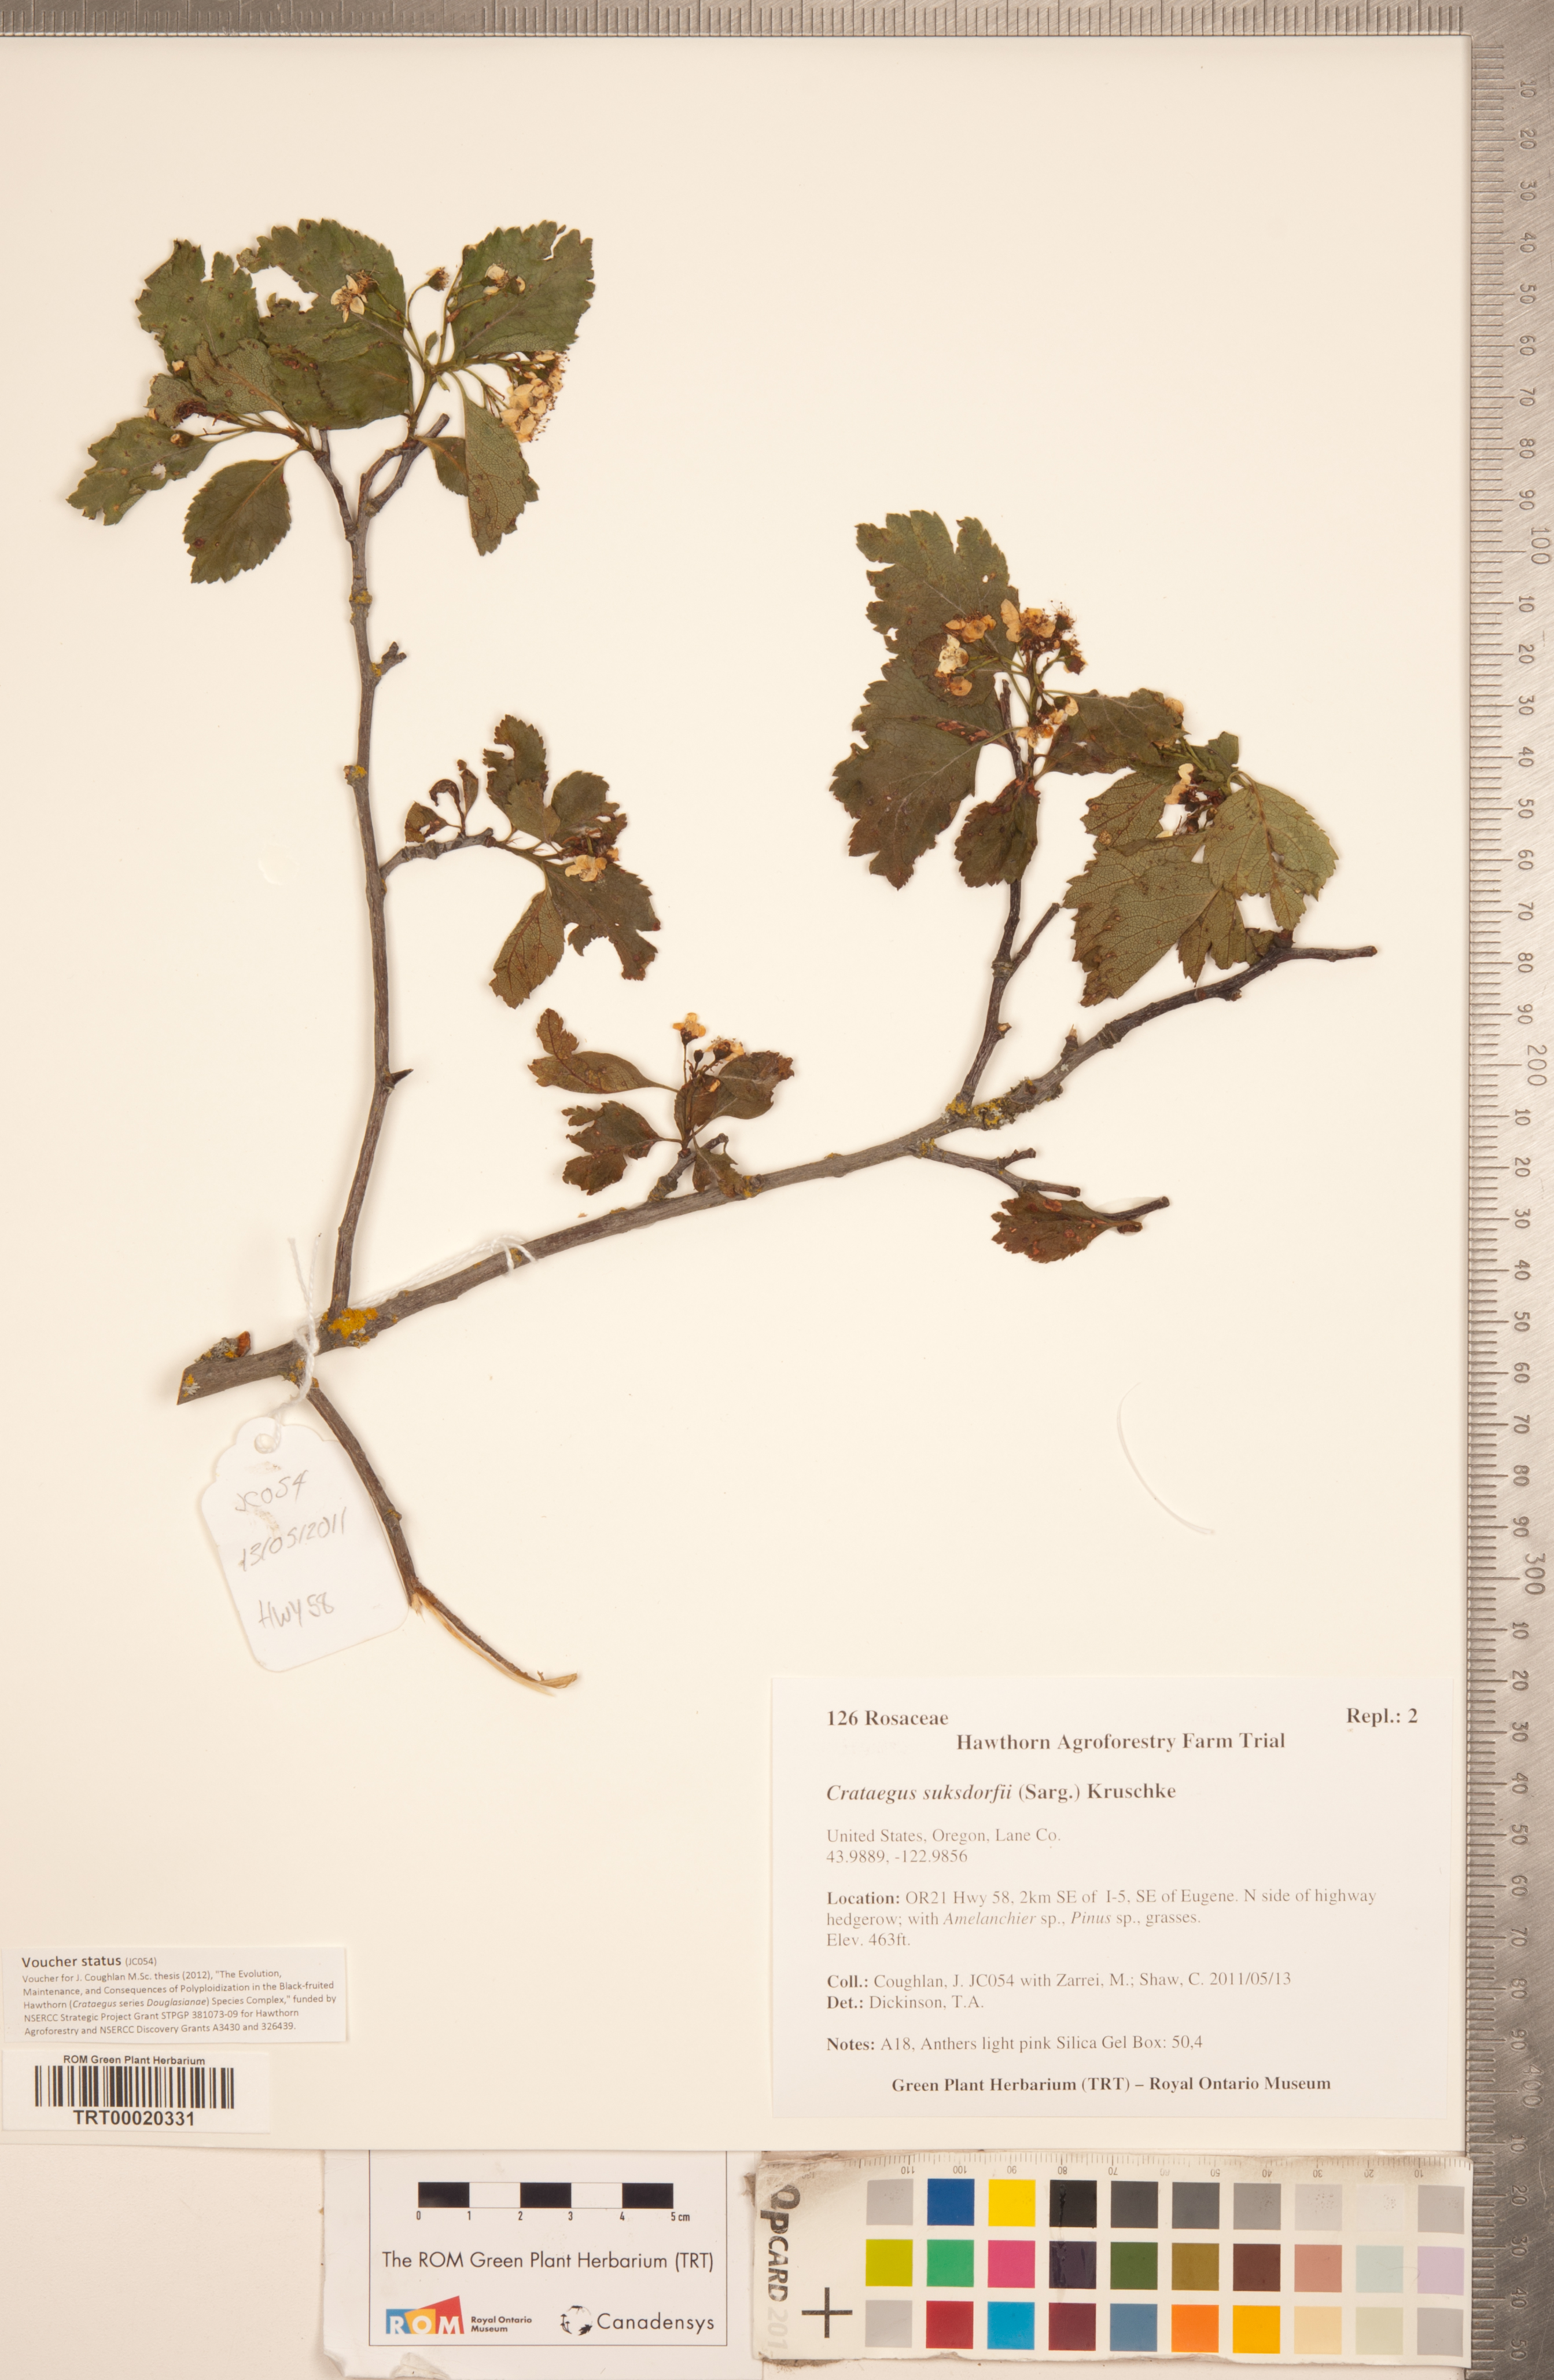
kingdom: Plantae
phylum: Tracheophyta
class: Magnoliopsida
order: Rosales
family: Rosaceae
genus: Crataegus
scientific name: Crataegus gaylussacia
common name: Huckleberry hawthorn
